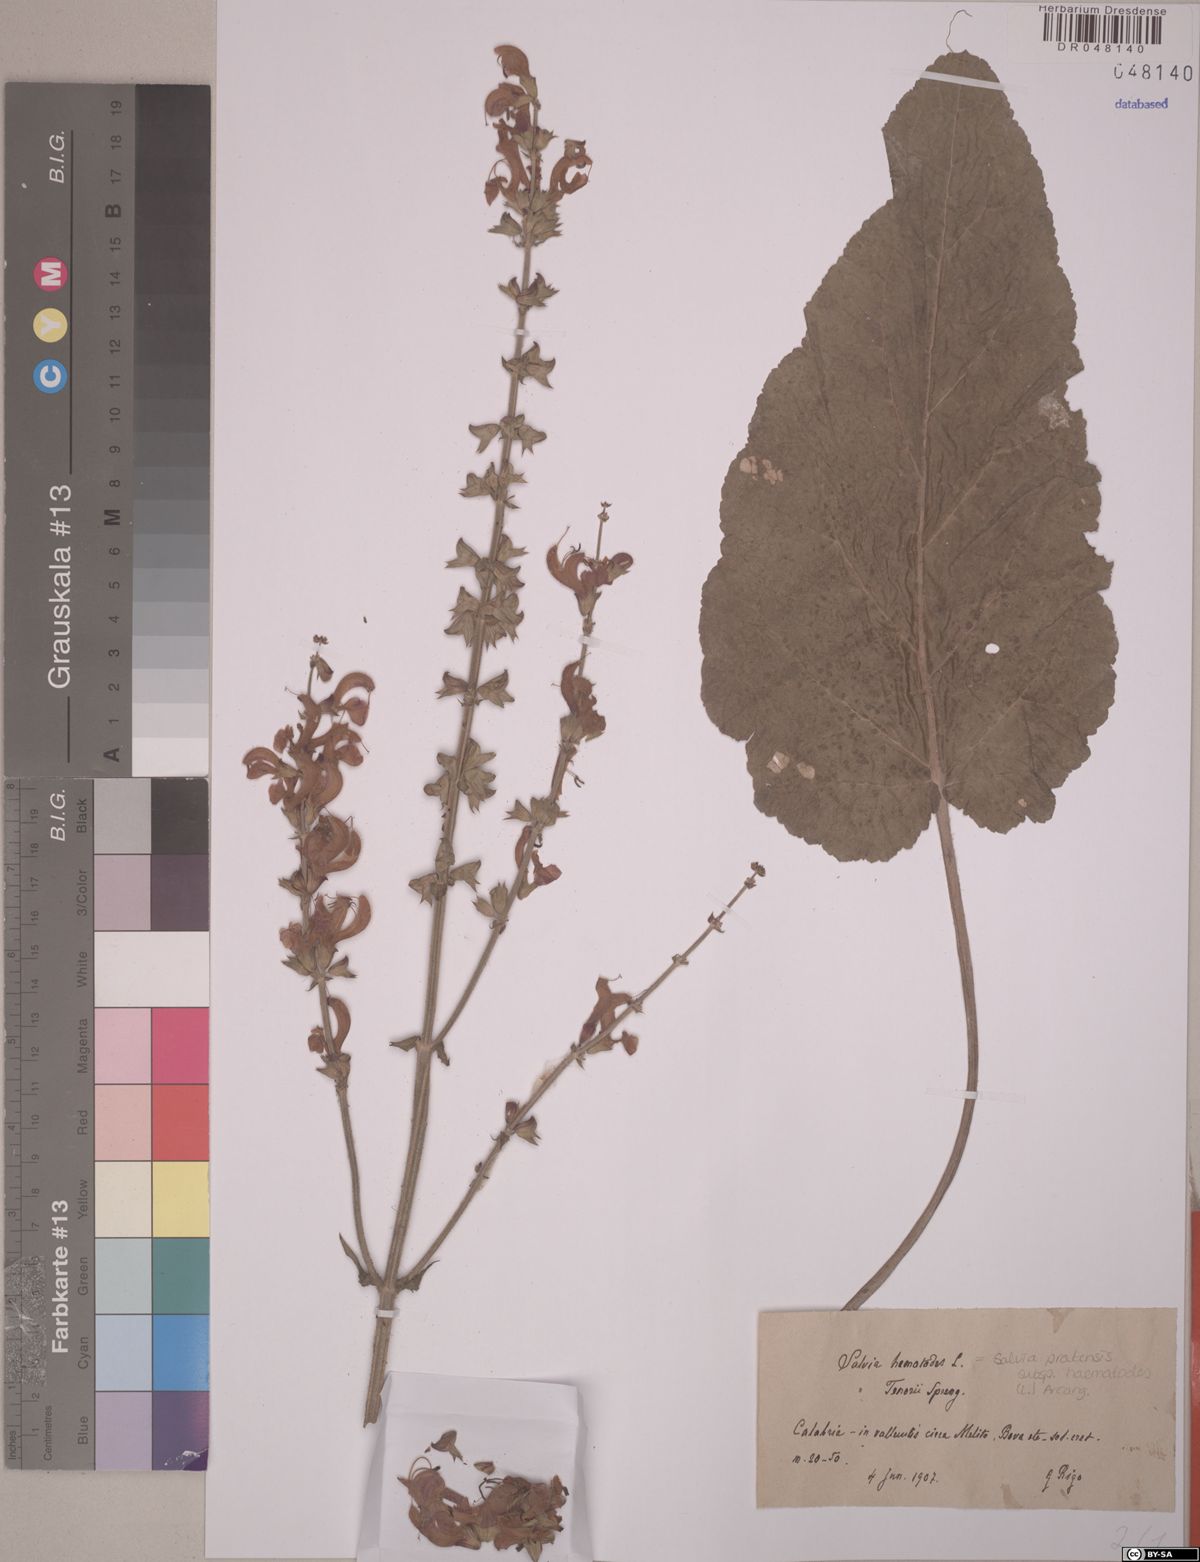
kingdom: Plantae
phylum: Tracheophyta
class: Magnoliopsida
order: Lamiales
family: Lamiaceae
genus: Salvia
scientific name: Salvia pratensis
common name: Meadow sage
